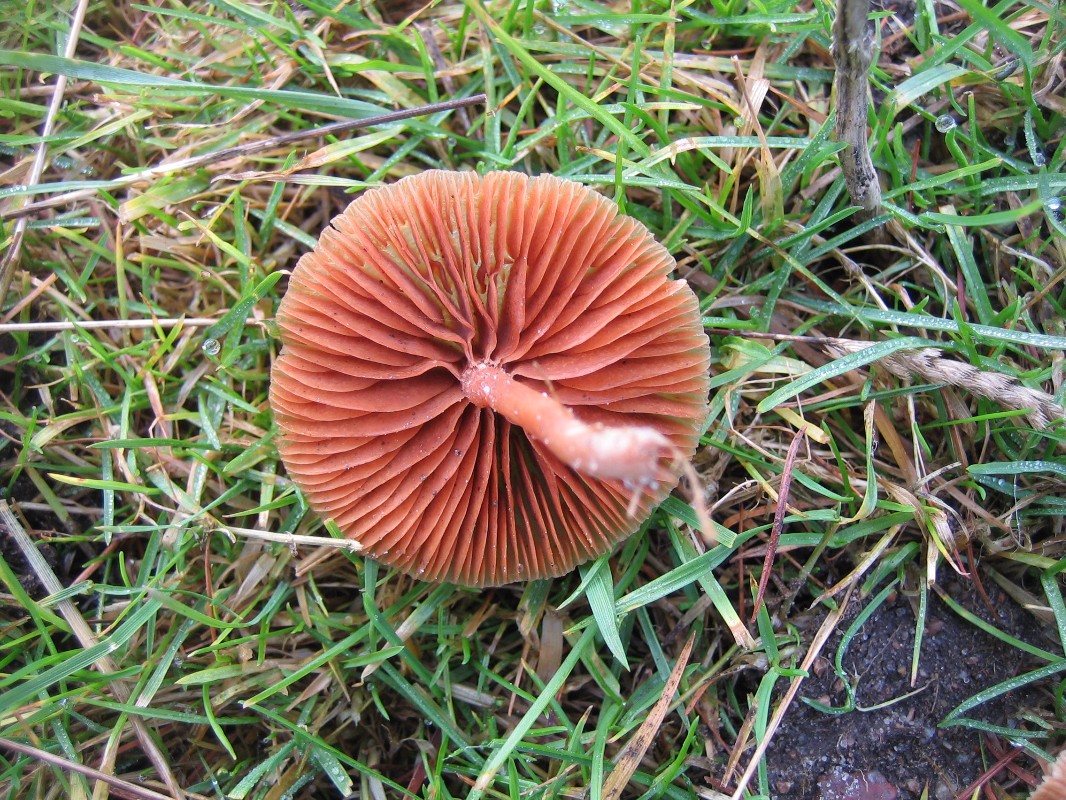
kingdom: Fungi
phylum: Basidiomycota
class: Agaricomycetes
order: Agaricales
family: Tubariaceae
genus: Tubaria
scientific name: Tubaria furfuracea
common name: kliddet fnughat
